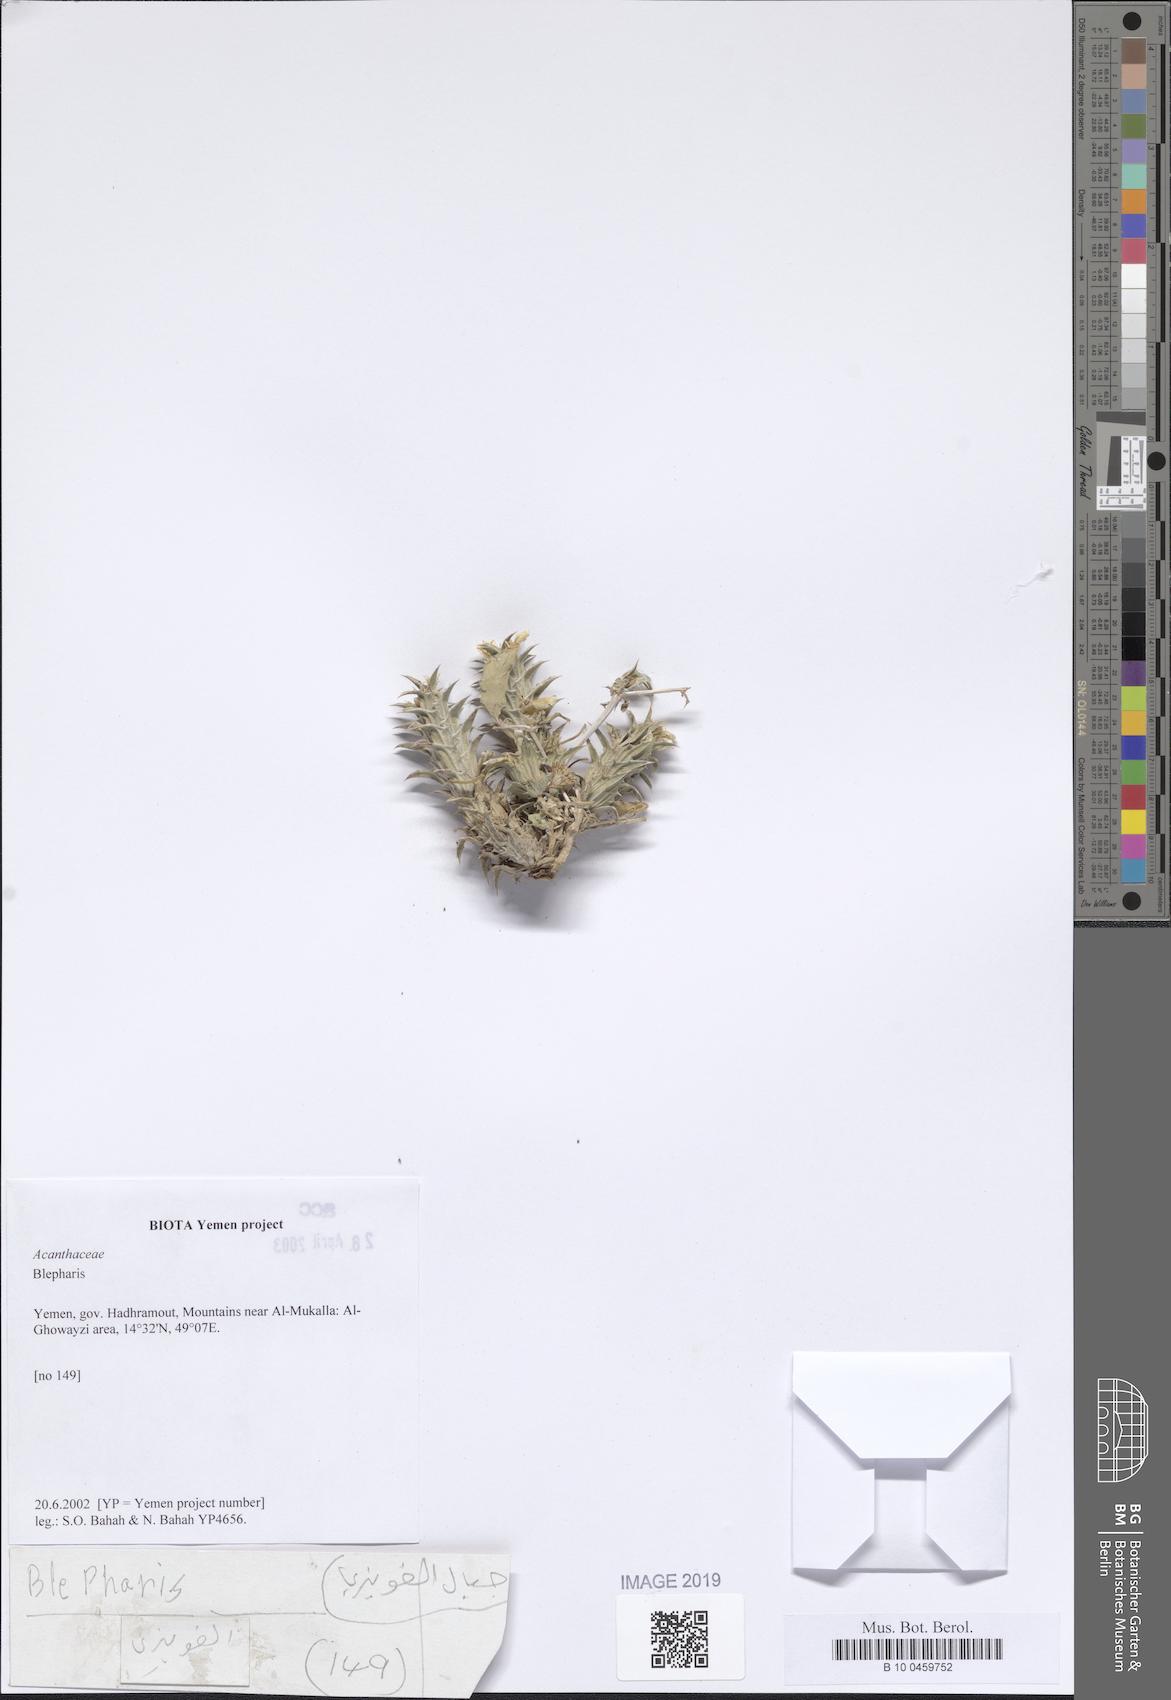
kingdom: Plantae
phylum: Tracheophyta
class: Magnoliopsida
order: Lamiales
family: Acanthaceae
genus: Blepharis
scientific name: Blepharis
